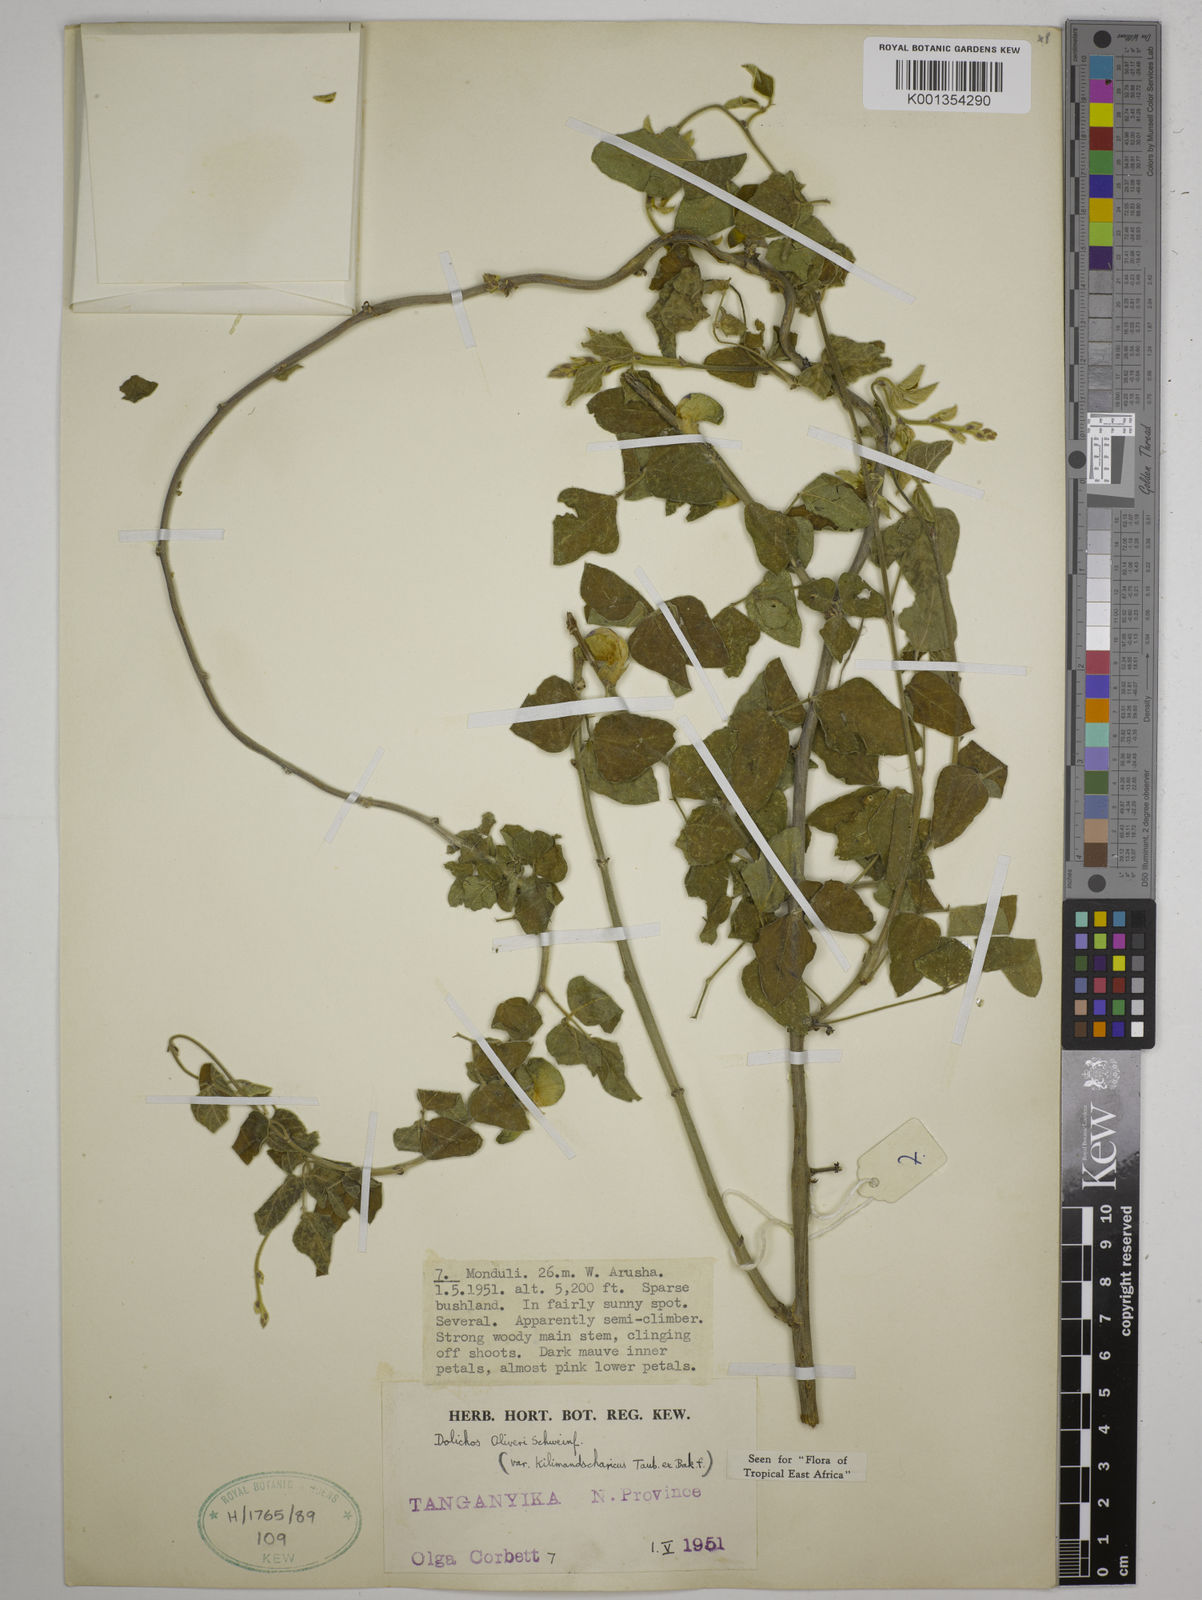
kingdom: Plantae
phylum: Tracheophyta
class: Magnoliopsida
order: Fabales
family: Fabaceae
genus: Dolichos
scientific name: Dolichos oliveri
